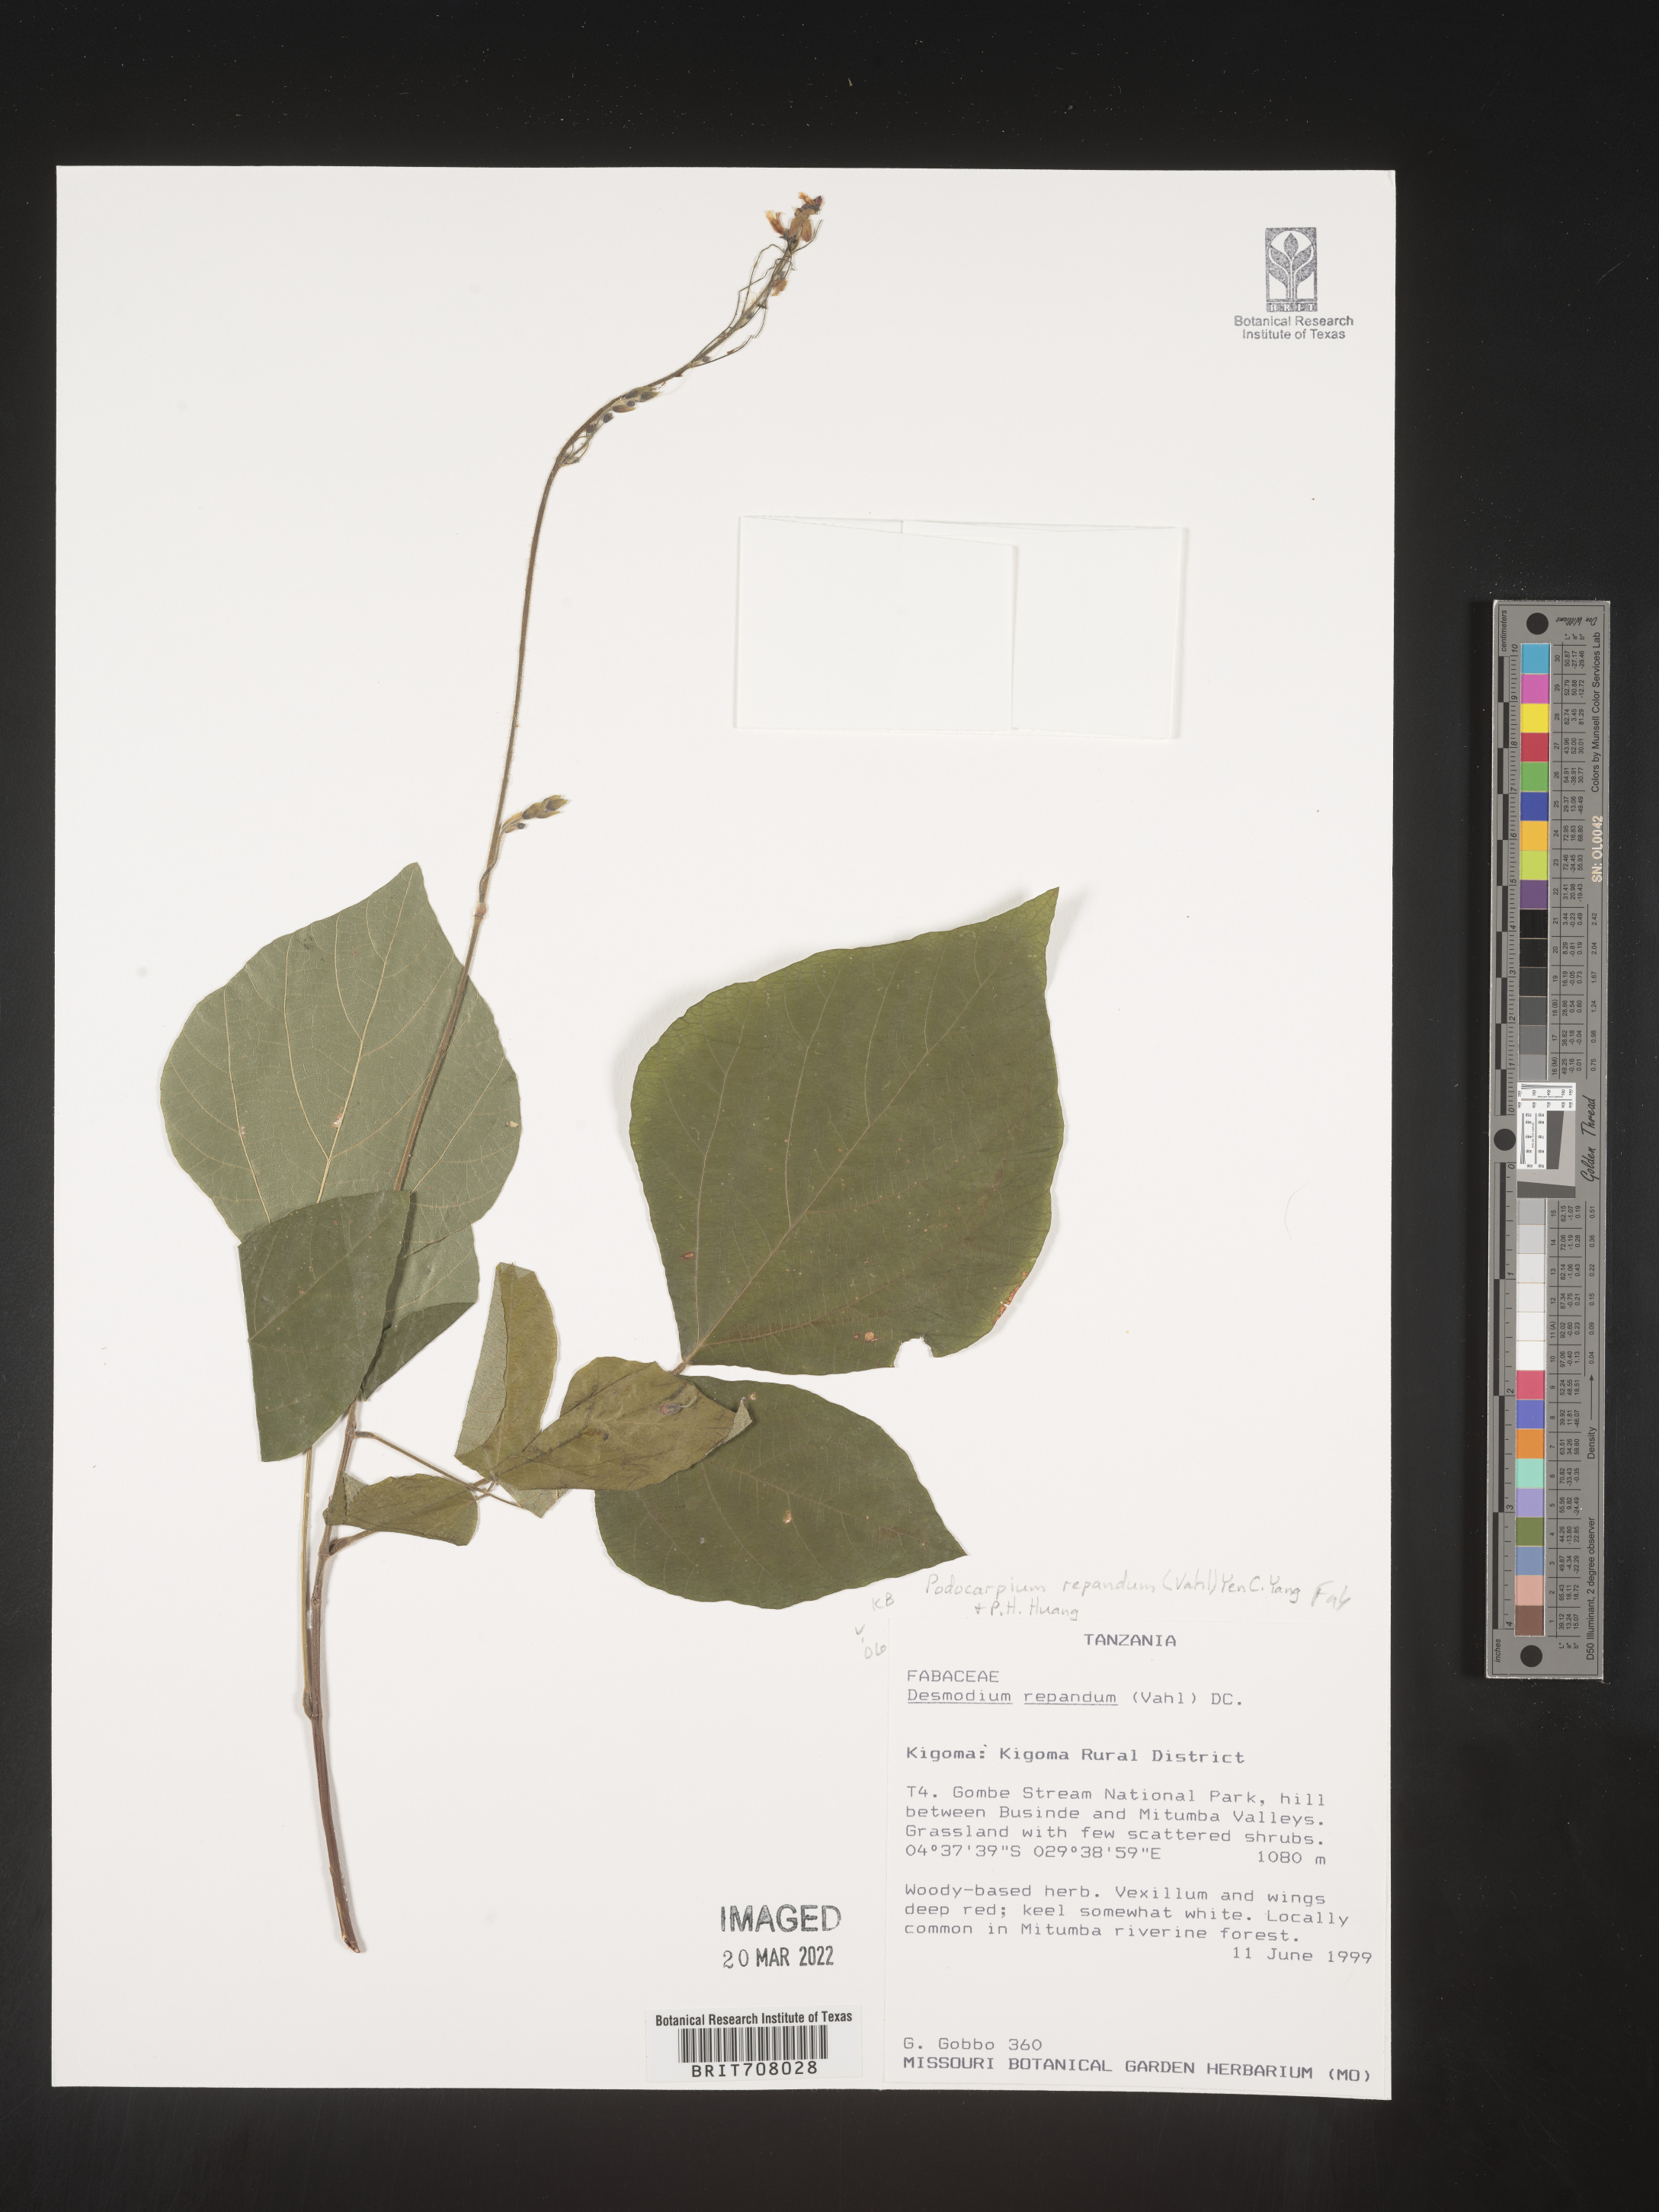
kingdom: Plantae
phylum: Tracheophyta
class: Magnoliopsida
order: Fabales
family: Fabaceae
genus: Desmodium
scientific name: Desmodium
